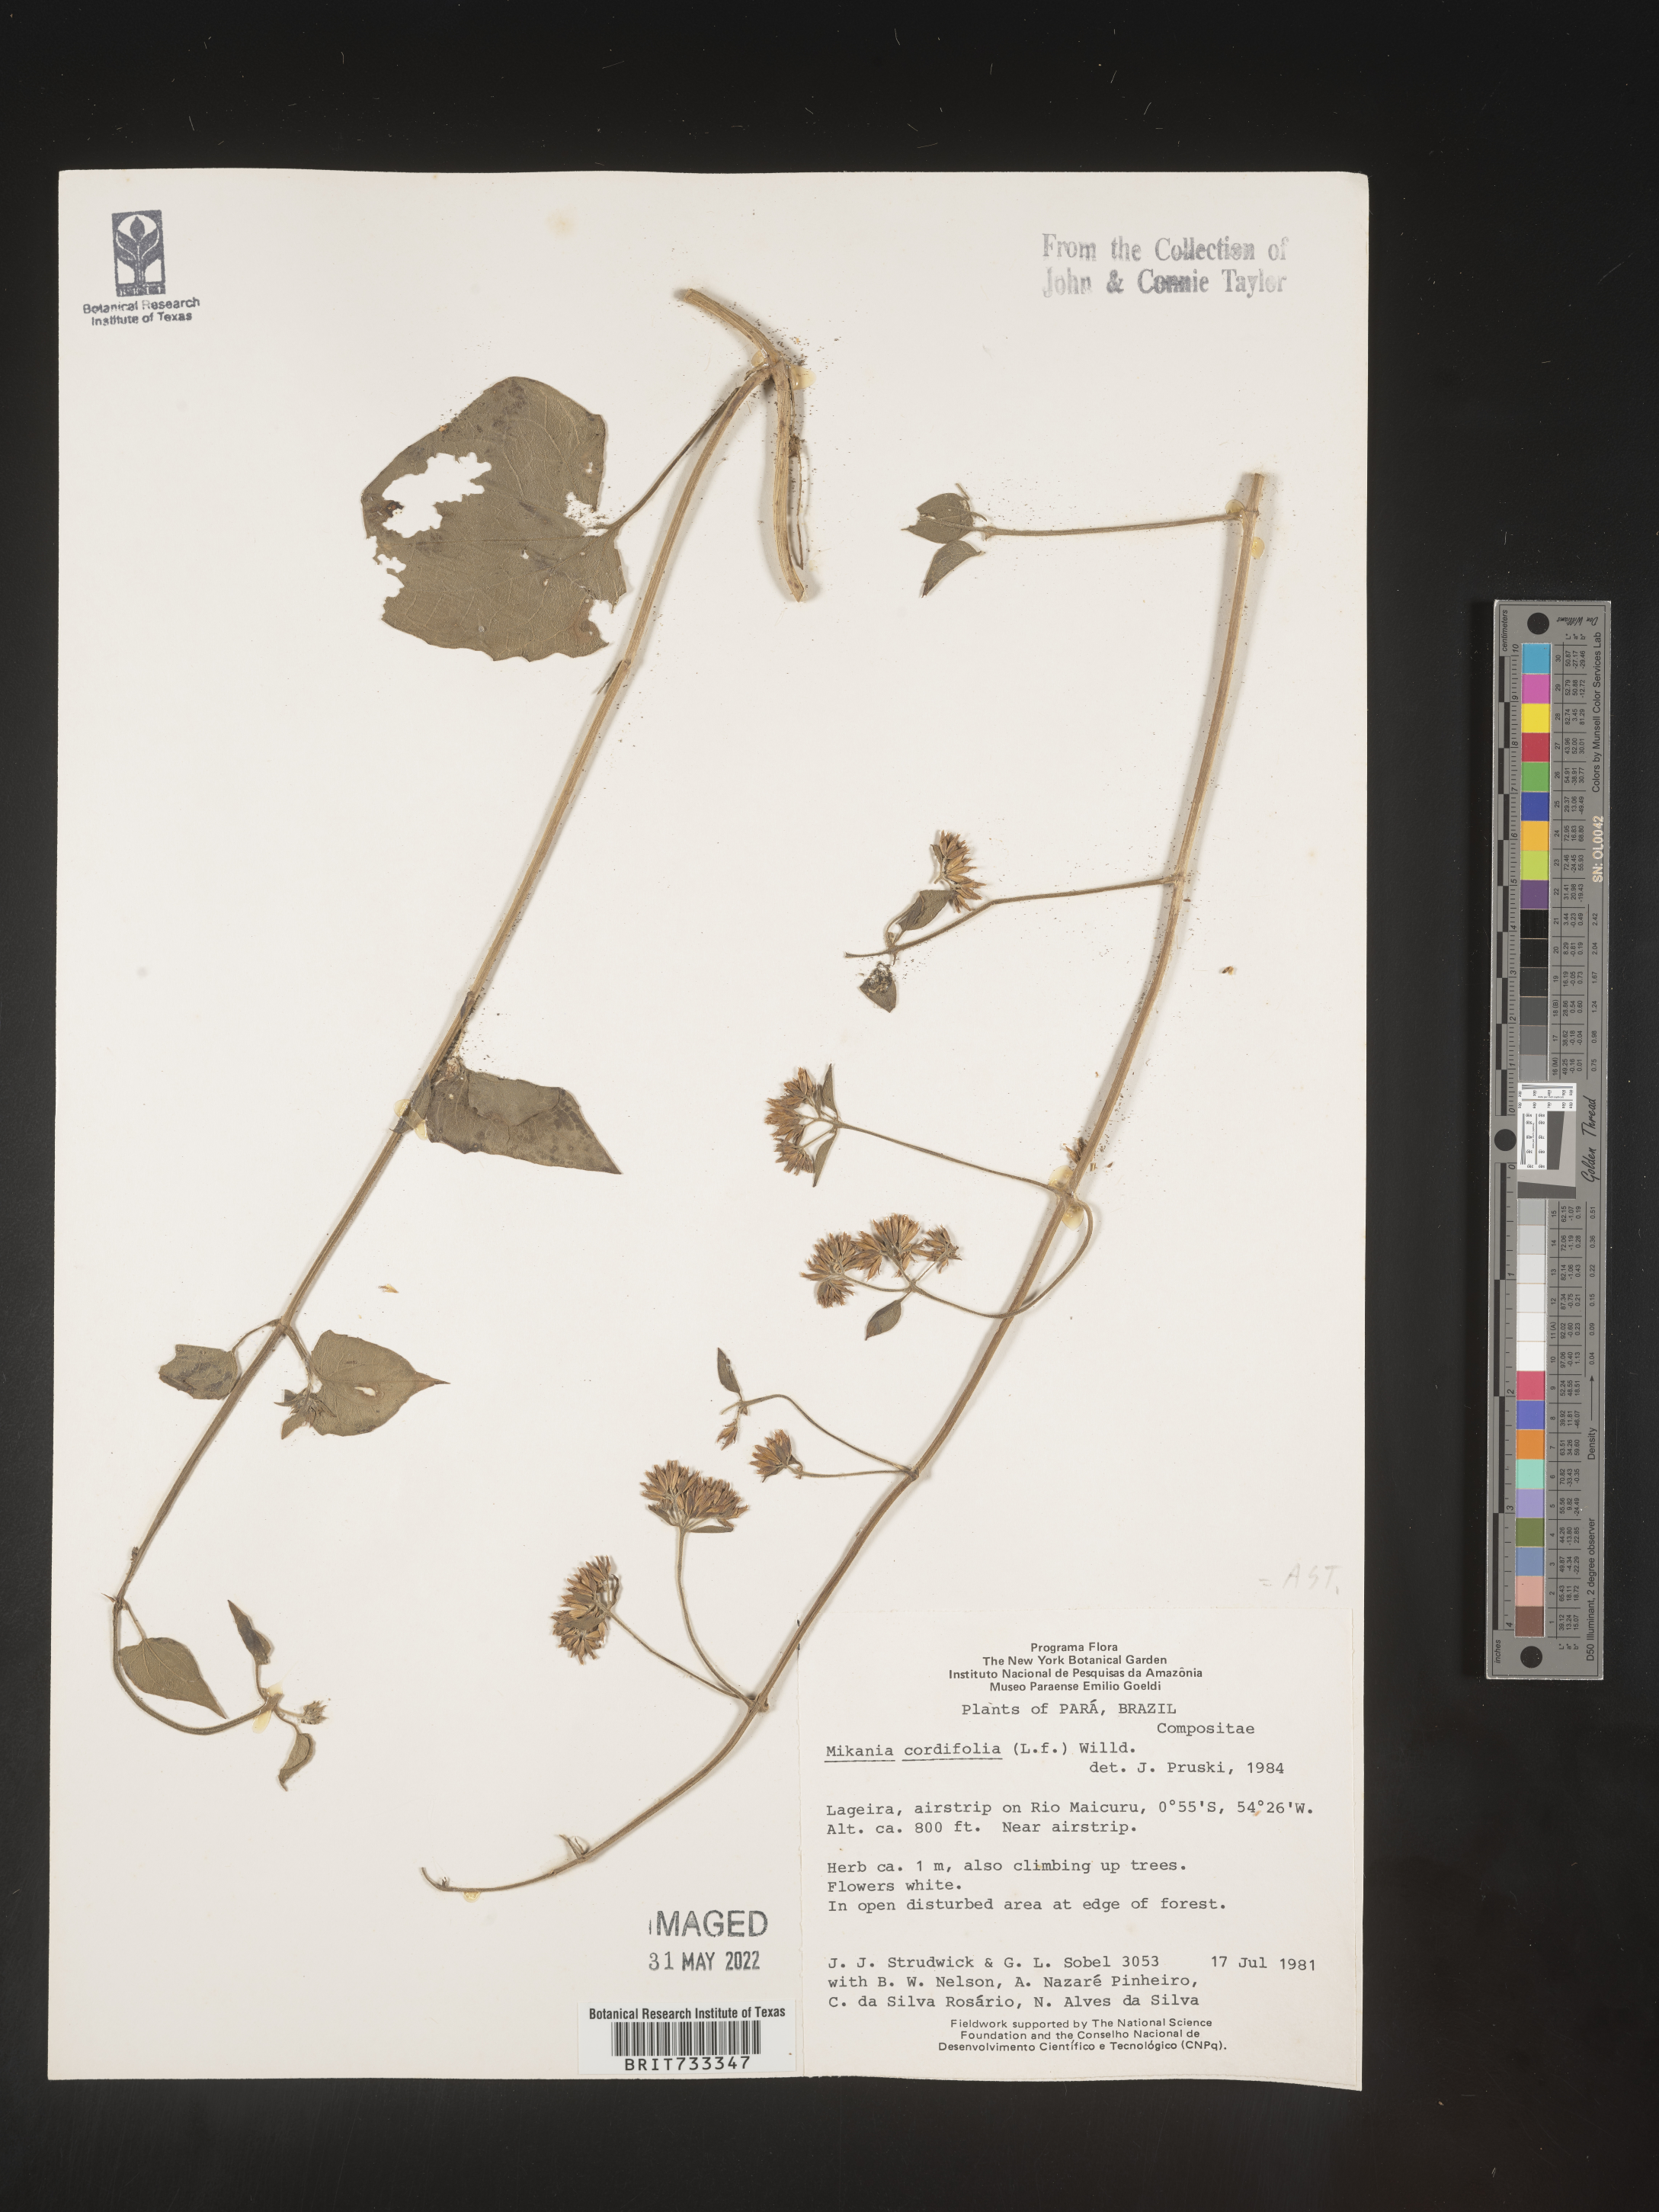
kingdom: Plantae
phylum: Tracheophyta
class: Magnoliopsida
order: Asterales
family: Asteraceae
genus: Mikania
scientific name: Mikania
